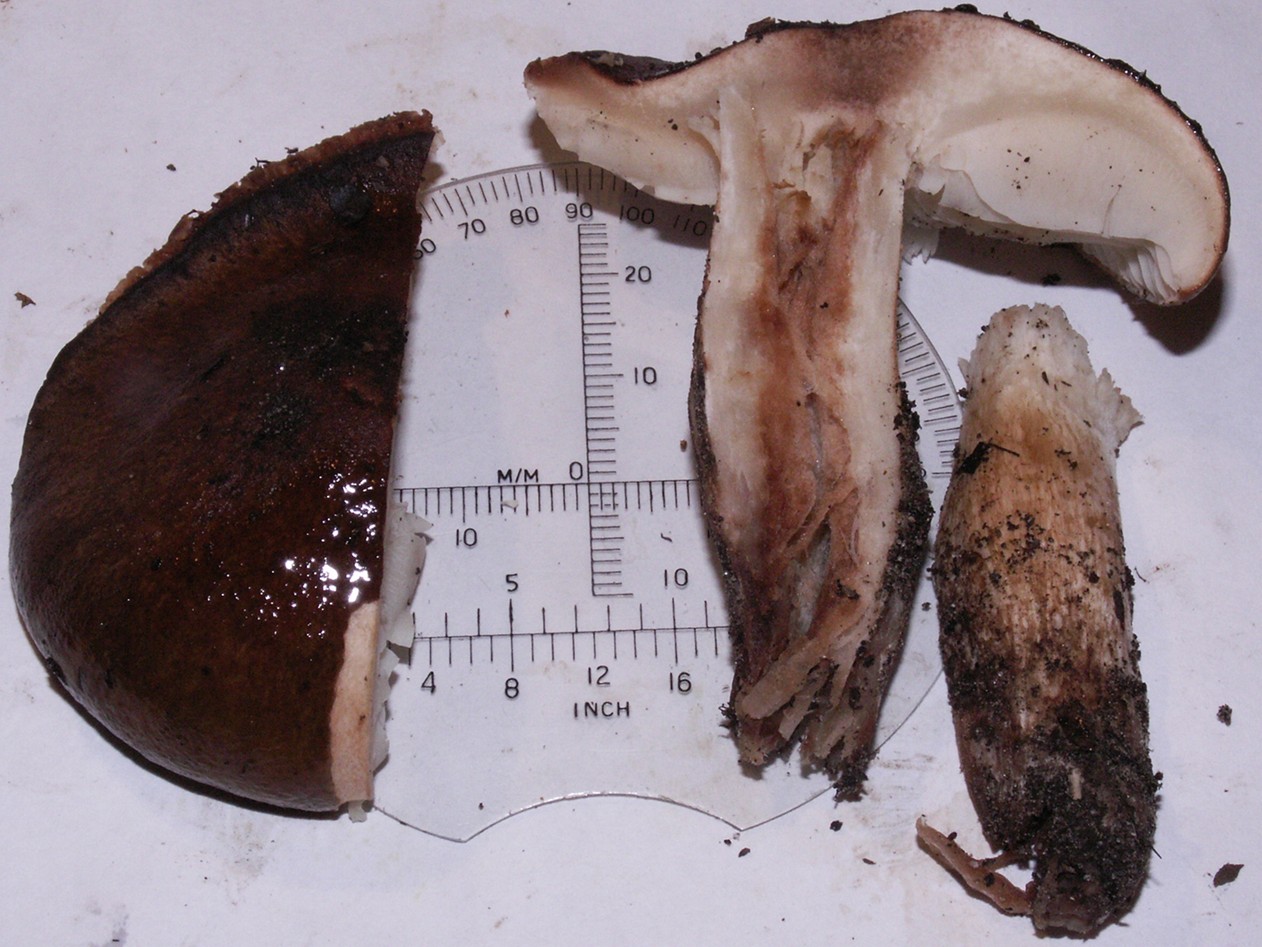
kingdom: Fungi
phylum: Basidiomycota
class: Agaricomycetes
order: Agaricales
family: Tricholomataceae
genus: Tricholoma
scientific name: Tricholoma albobrunneum
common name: kastanie-ridderhat
